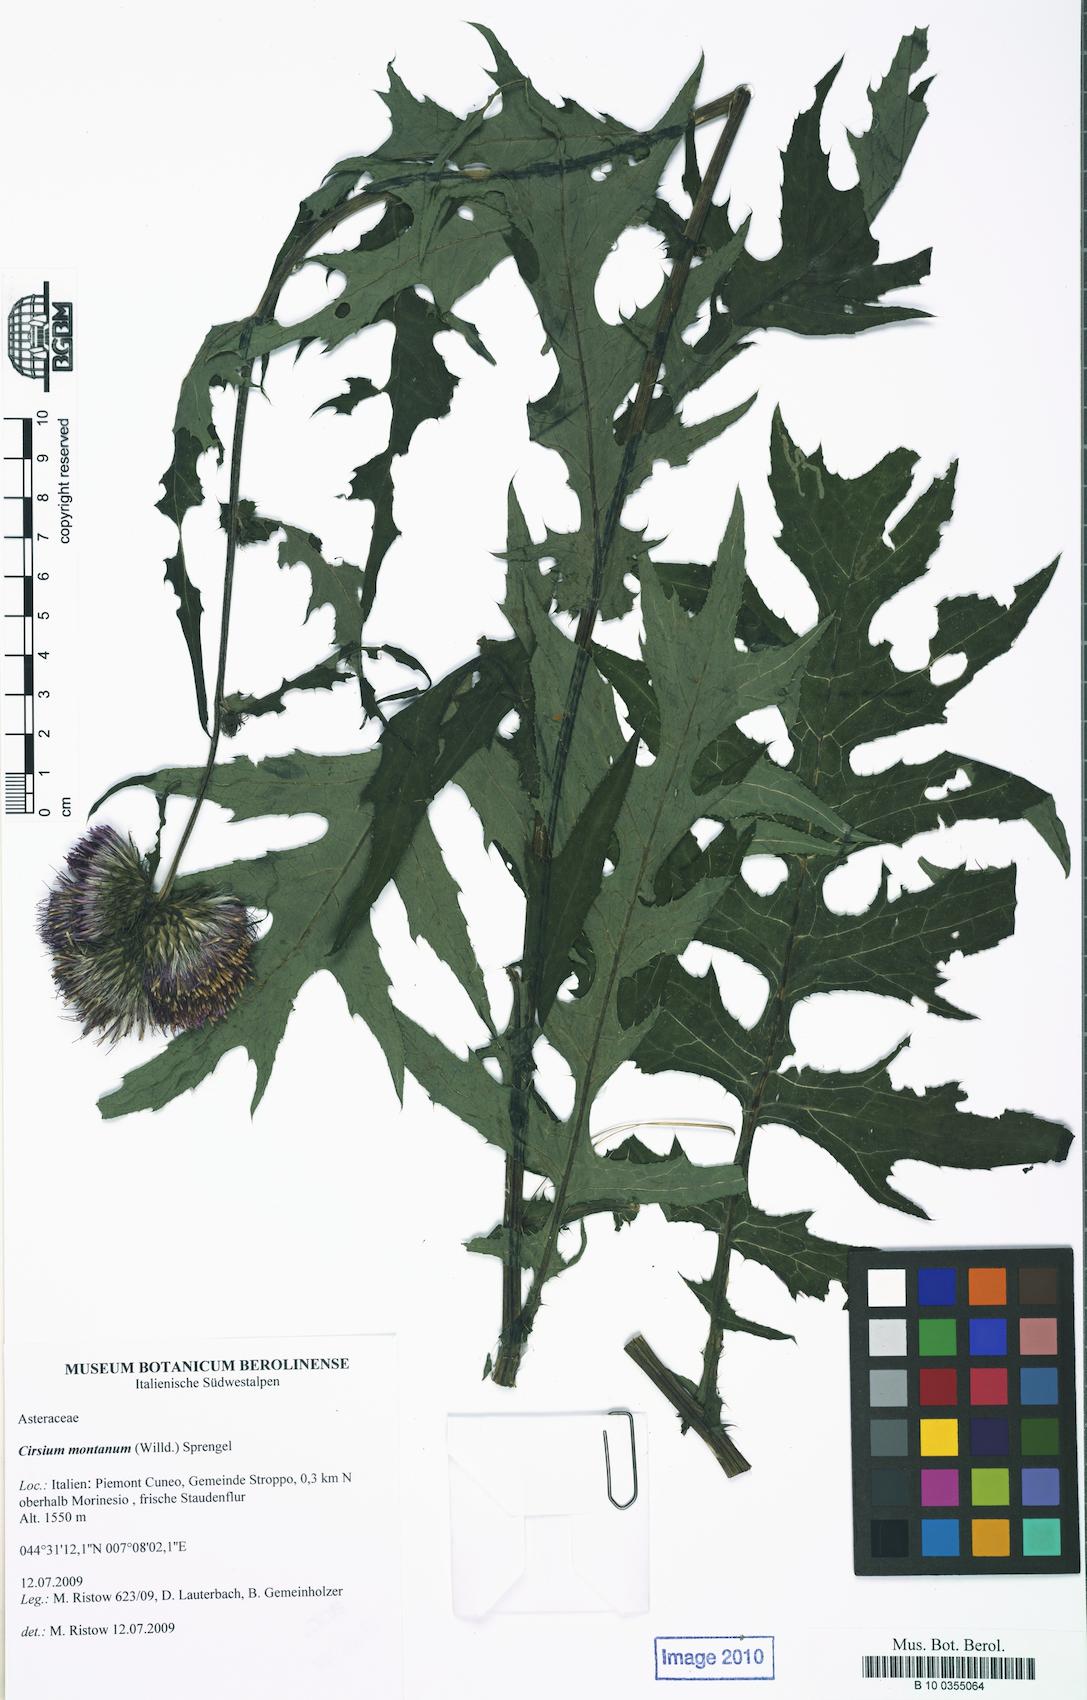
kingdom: Plantae
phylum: Tracheophyta
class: Magnoliopsida
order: Asterales
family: Asteraceae
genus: Cirsium
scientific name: Cirsium alsophilum
